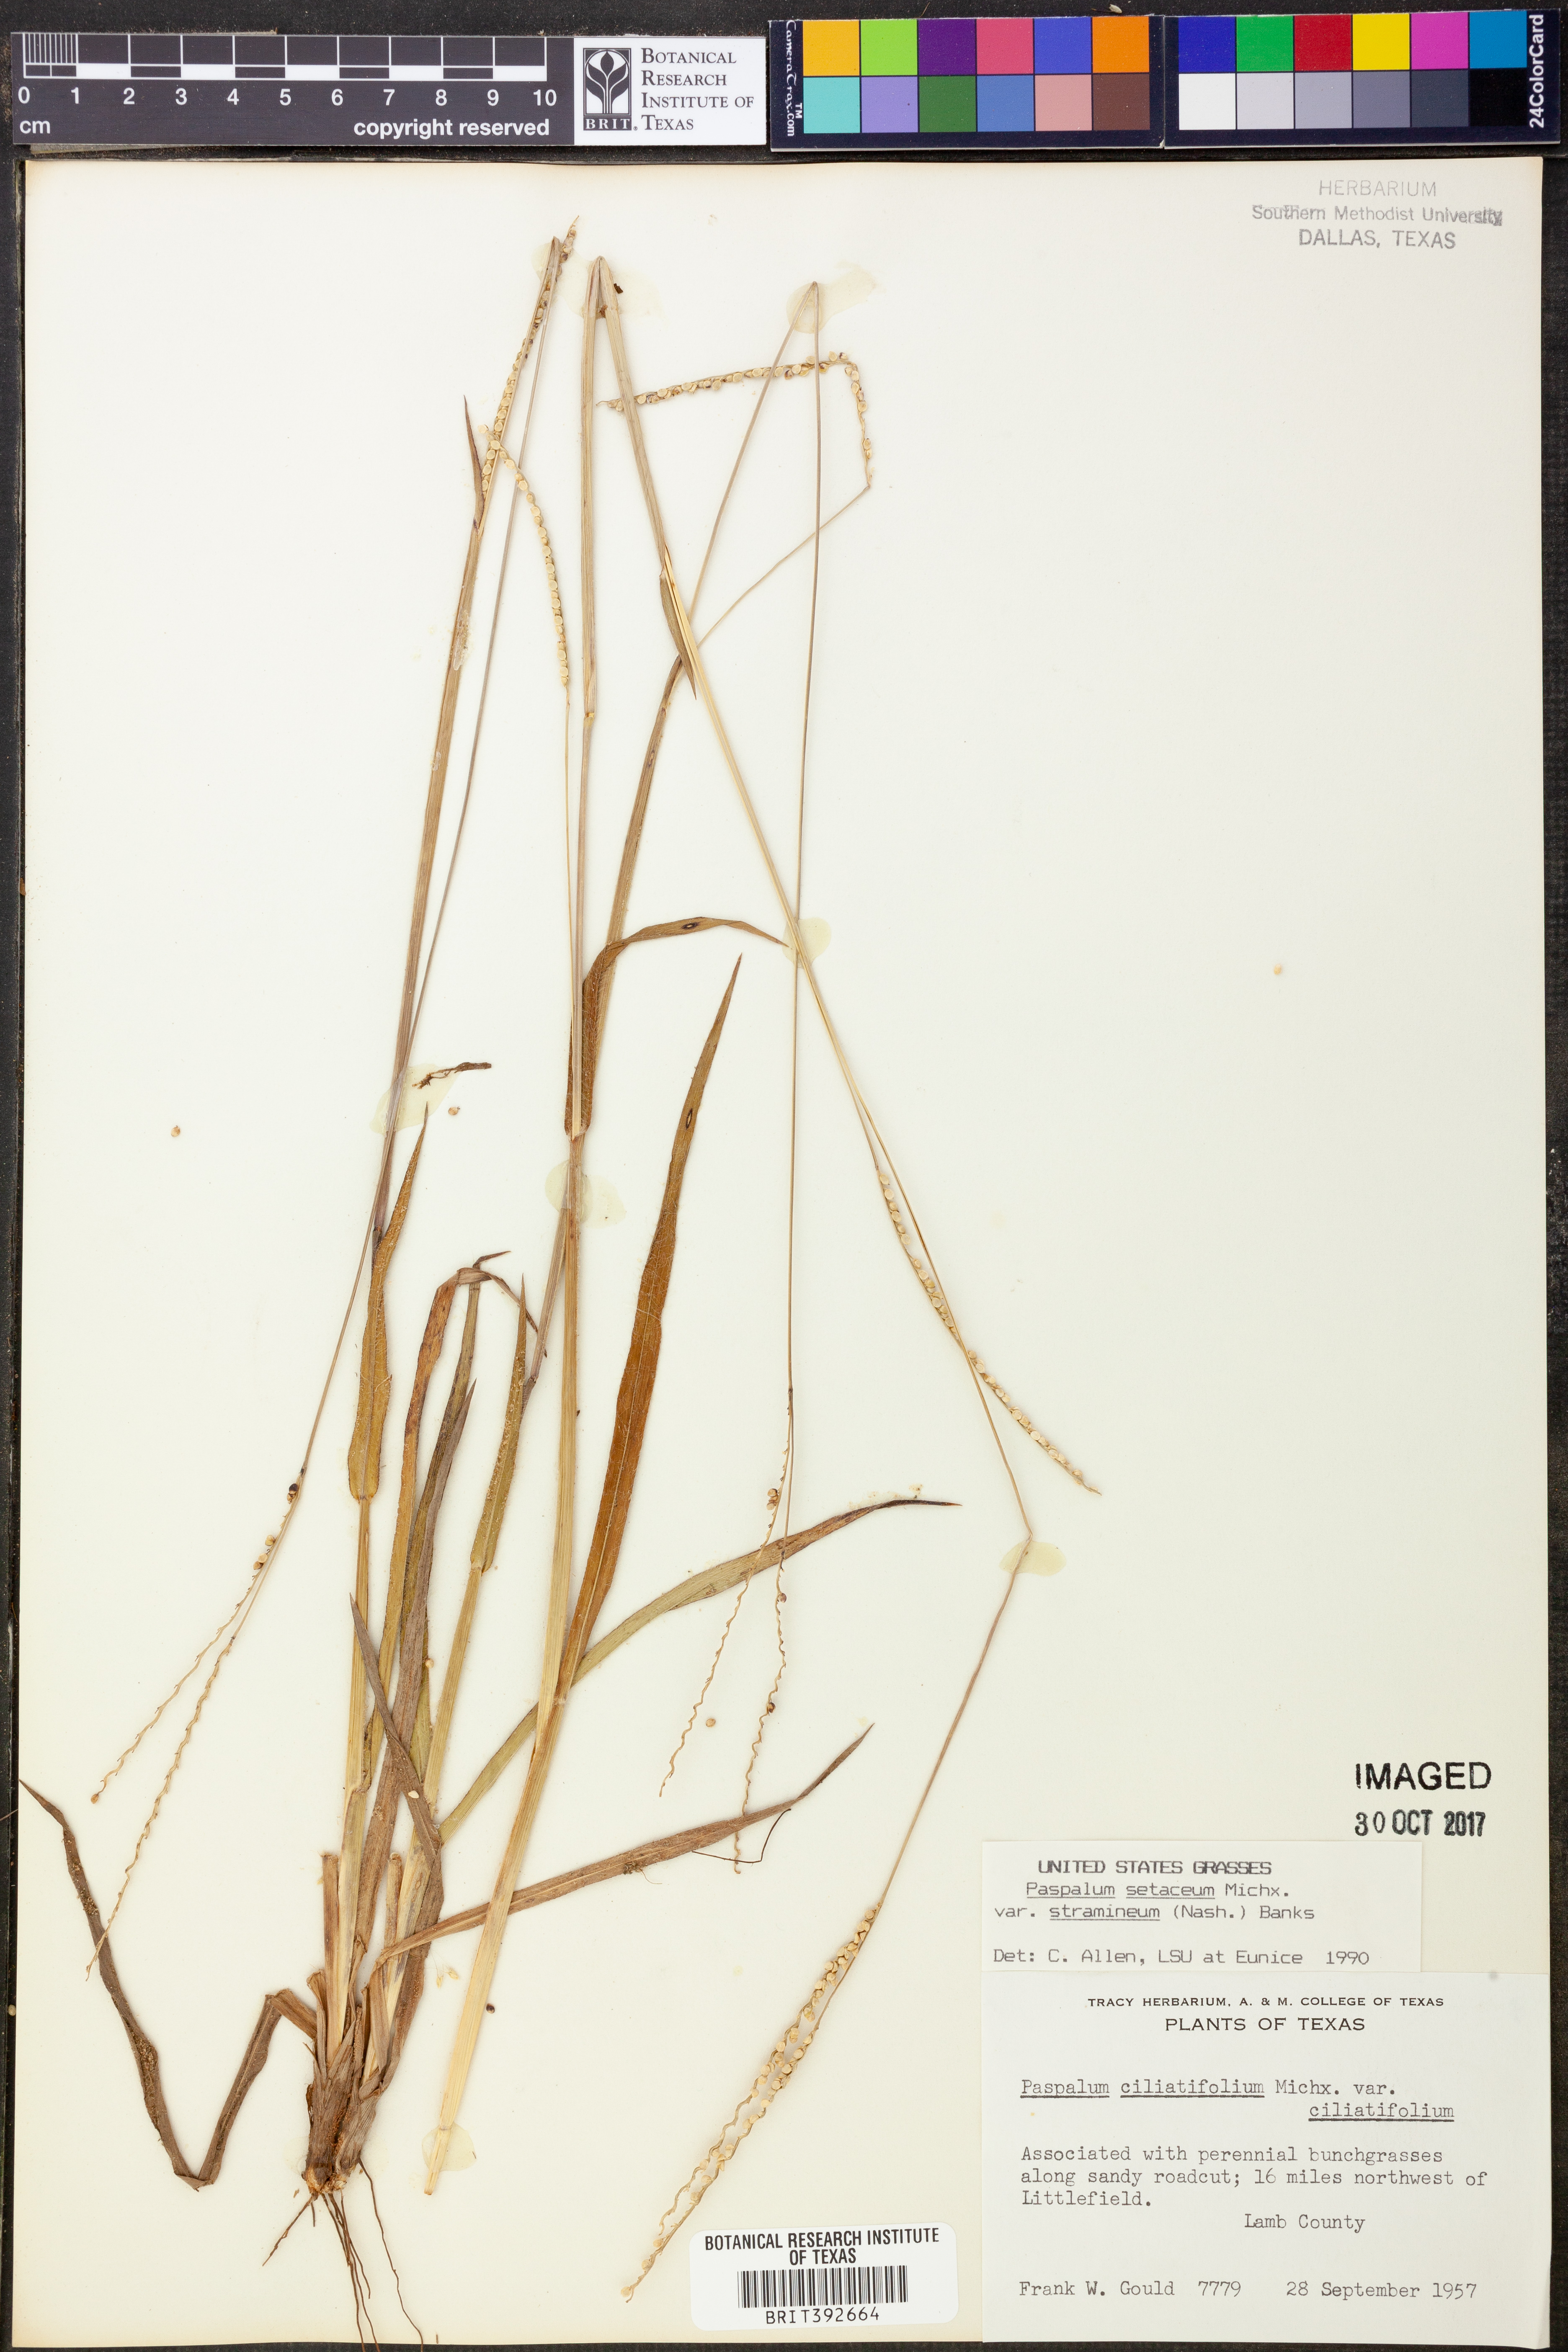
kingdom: Plantae
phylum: Tracheophyta
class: Liliopsida
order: Poales
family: Poaceae
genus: Paspalum
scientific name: Paspalum setaceum
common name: Slender paspalum
